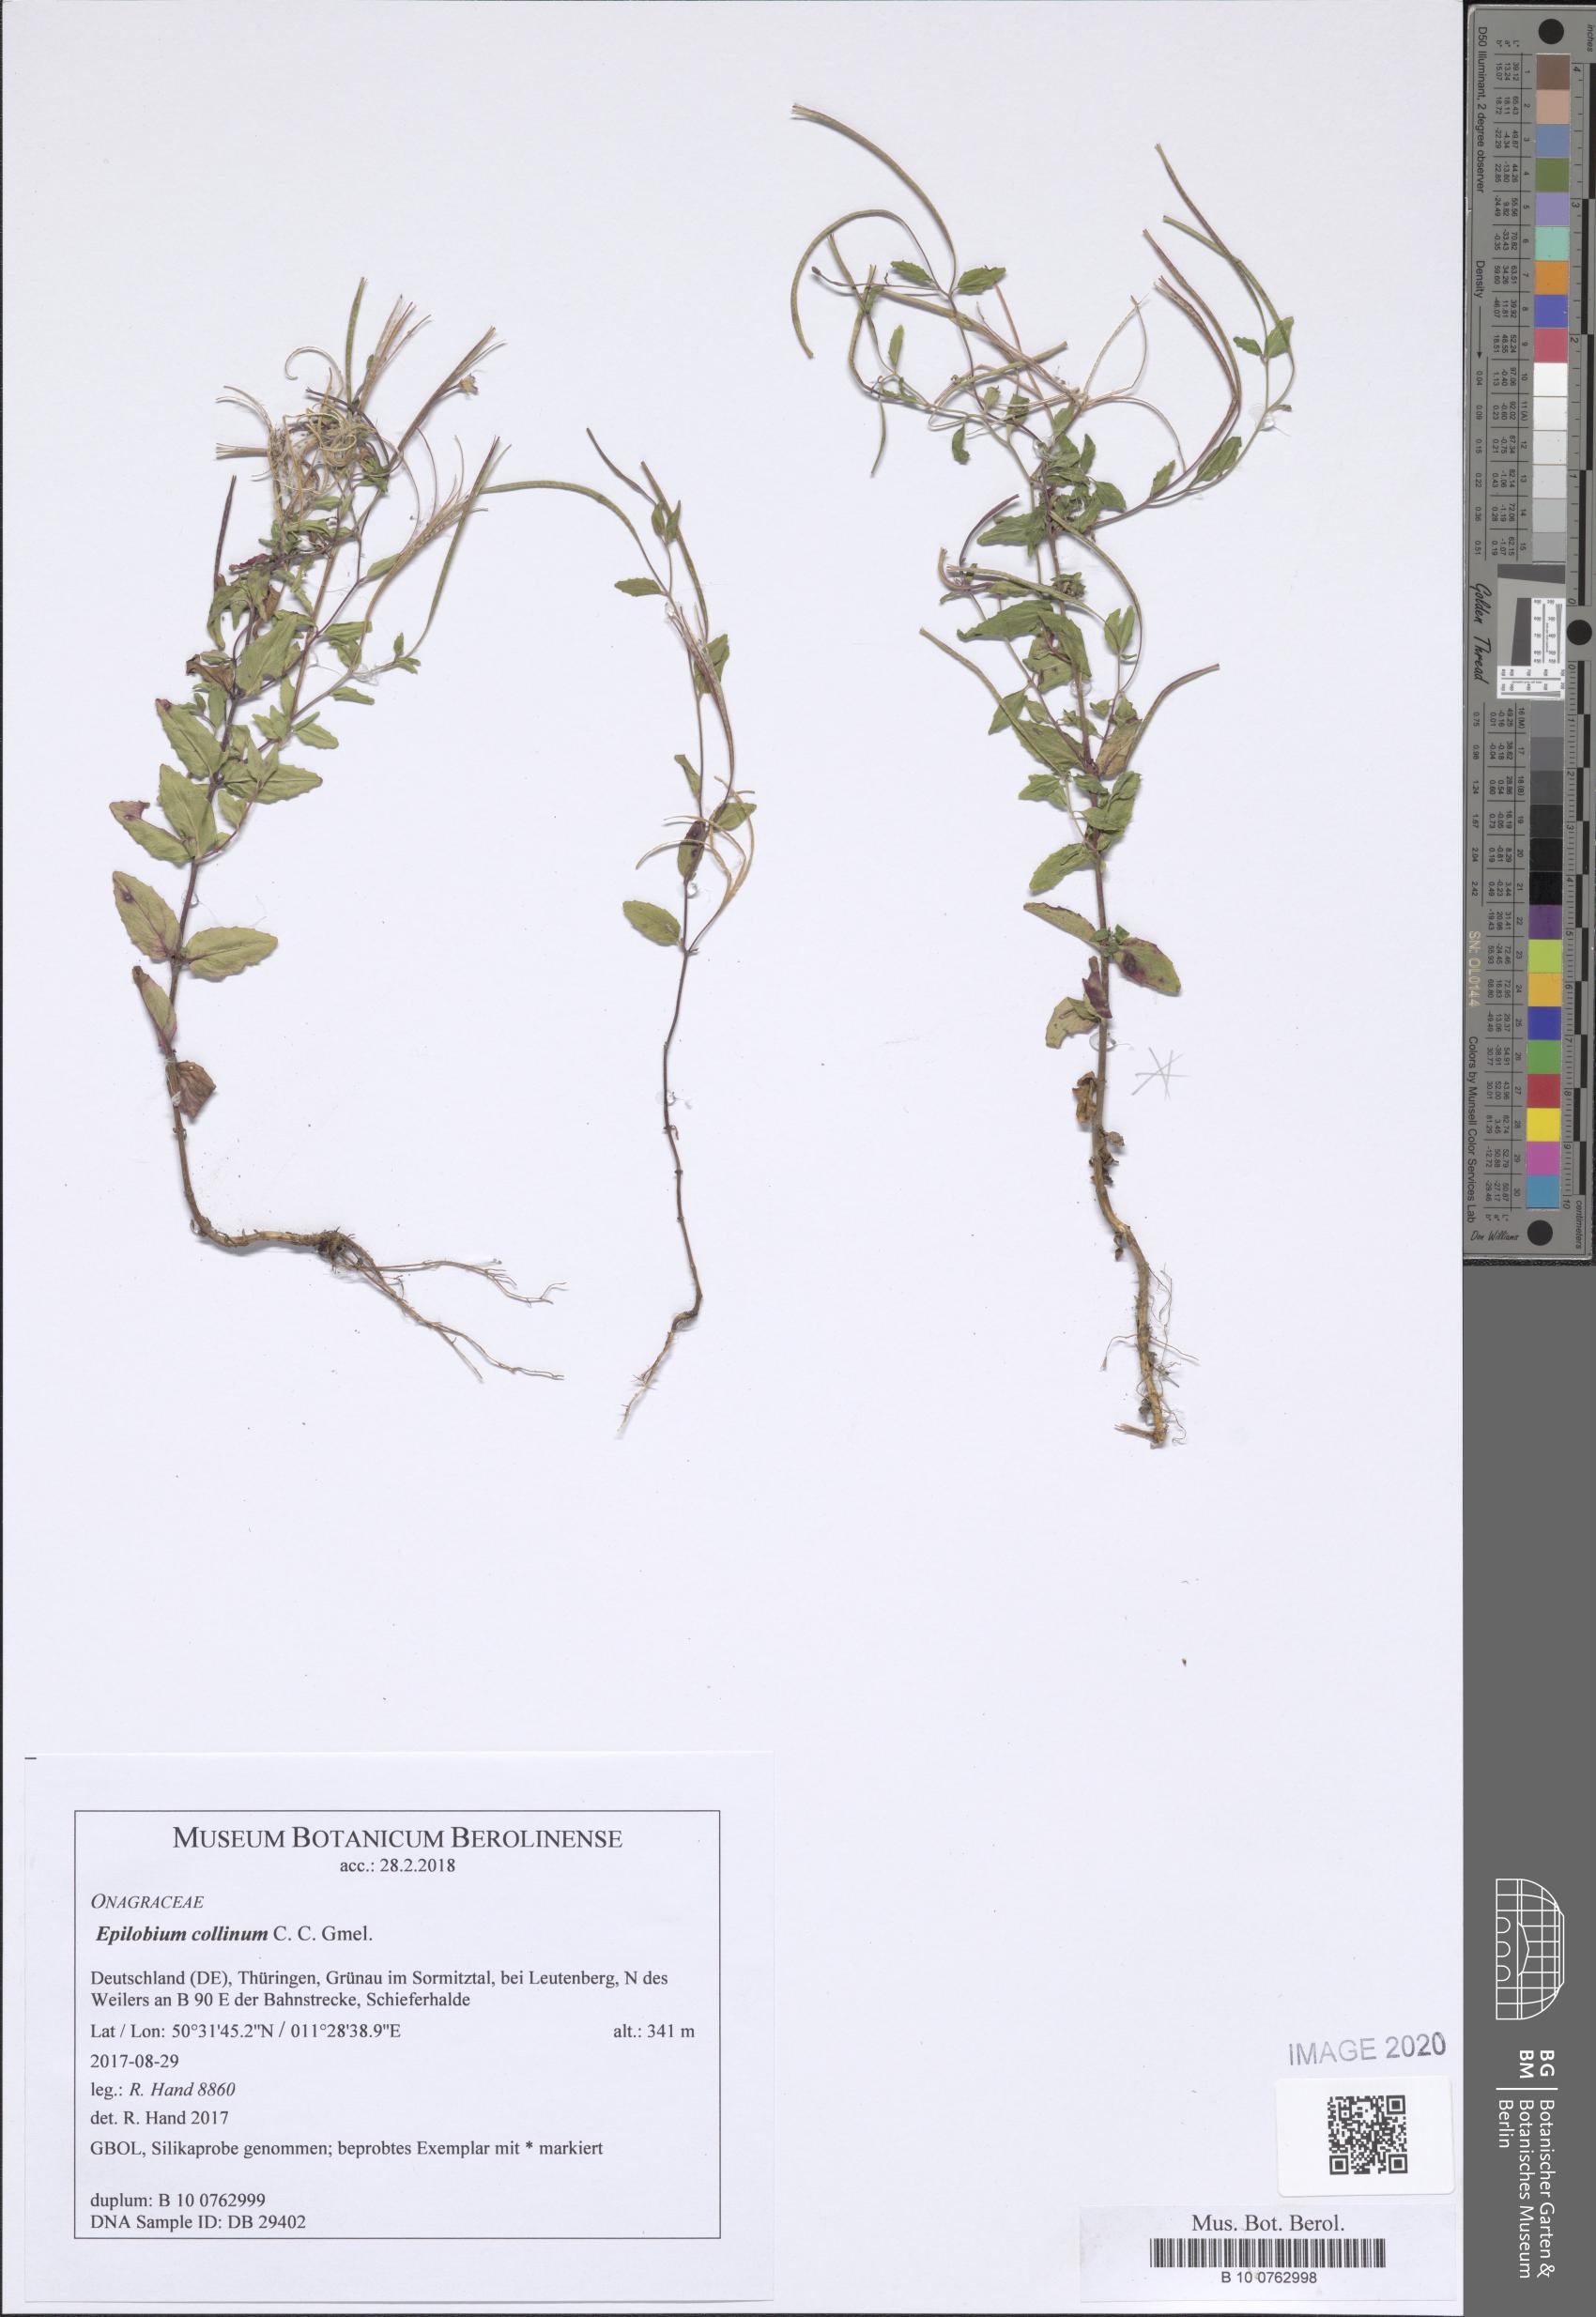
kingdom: Plantae
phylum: Tracheophyta
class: Magnoliopsida
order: Myrtales
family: Onagraceae
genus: Epilobium
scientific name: Epilobium collinum
